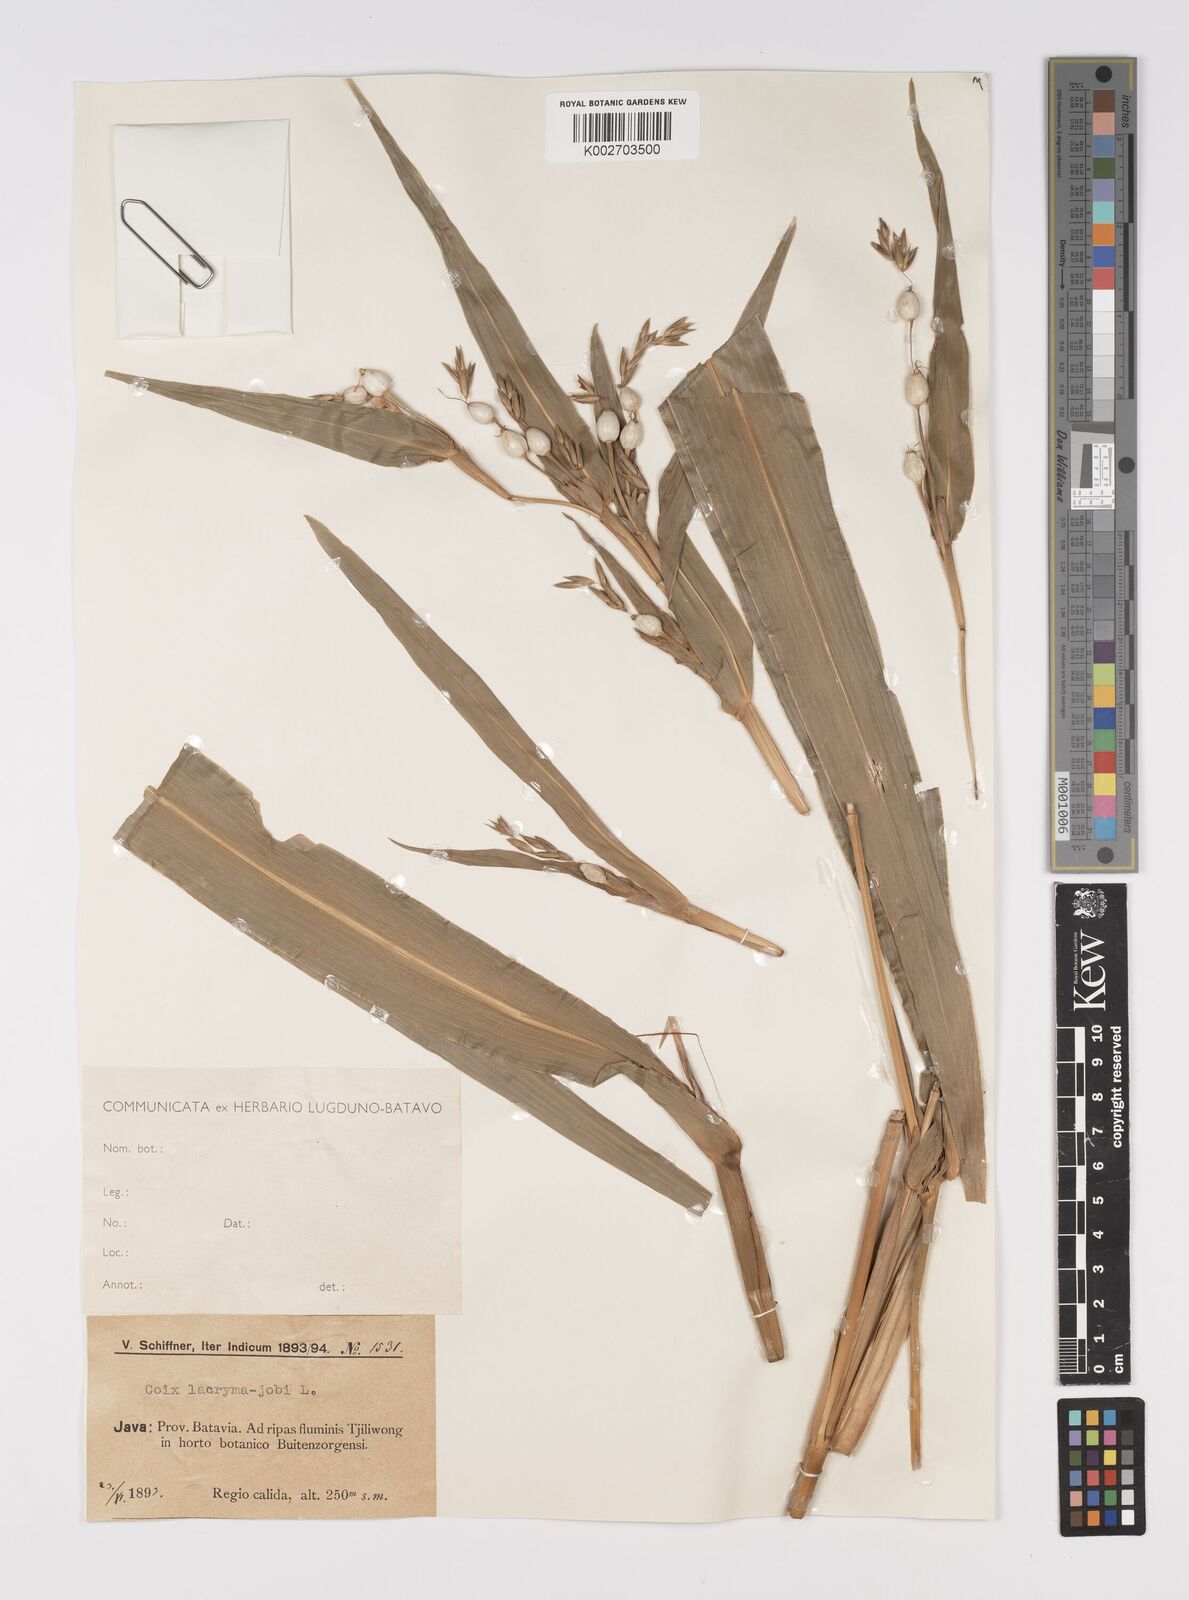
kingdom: Plantae
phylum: Tracheophyta
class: Liliopsida
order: Poales
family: Poaceae
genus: Coix
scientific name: Coix lacryma-jobi
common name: Job's tears
